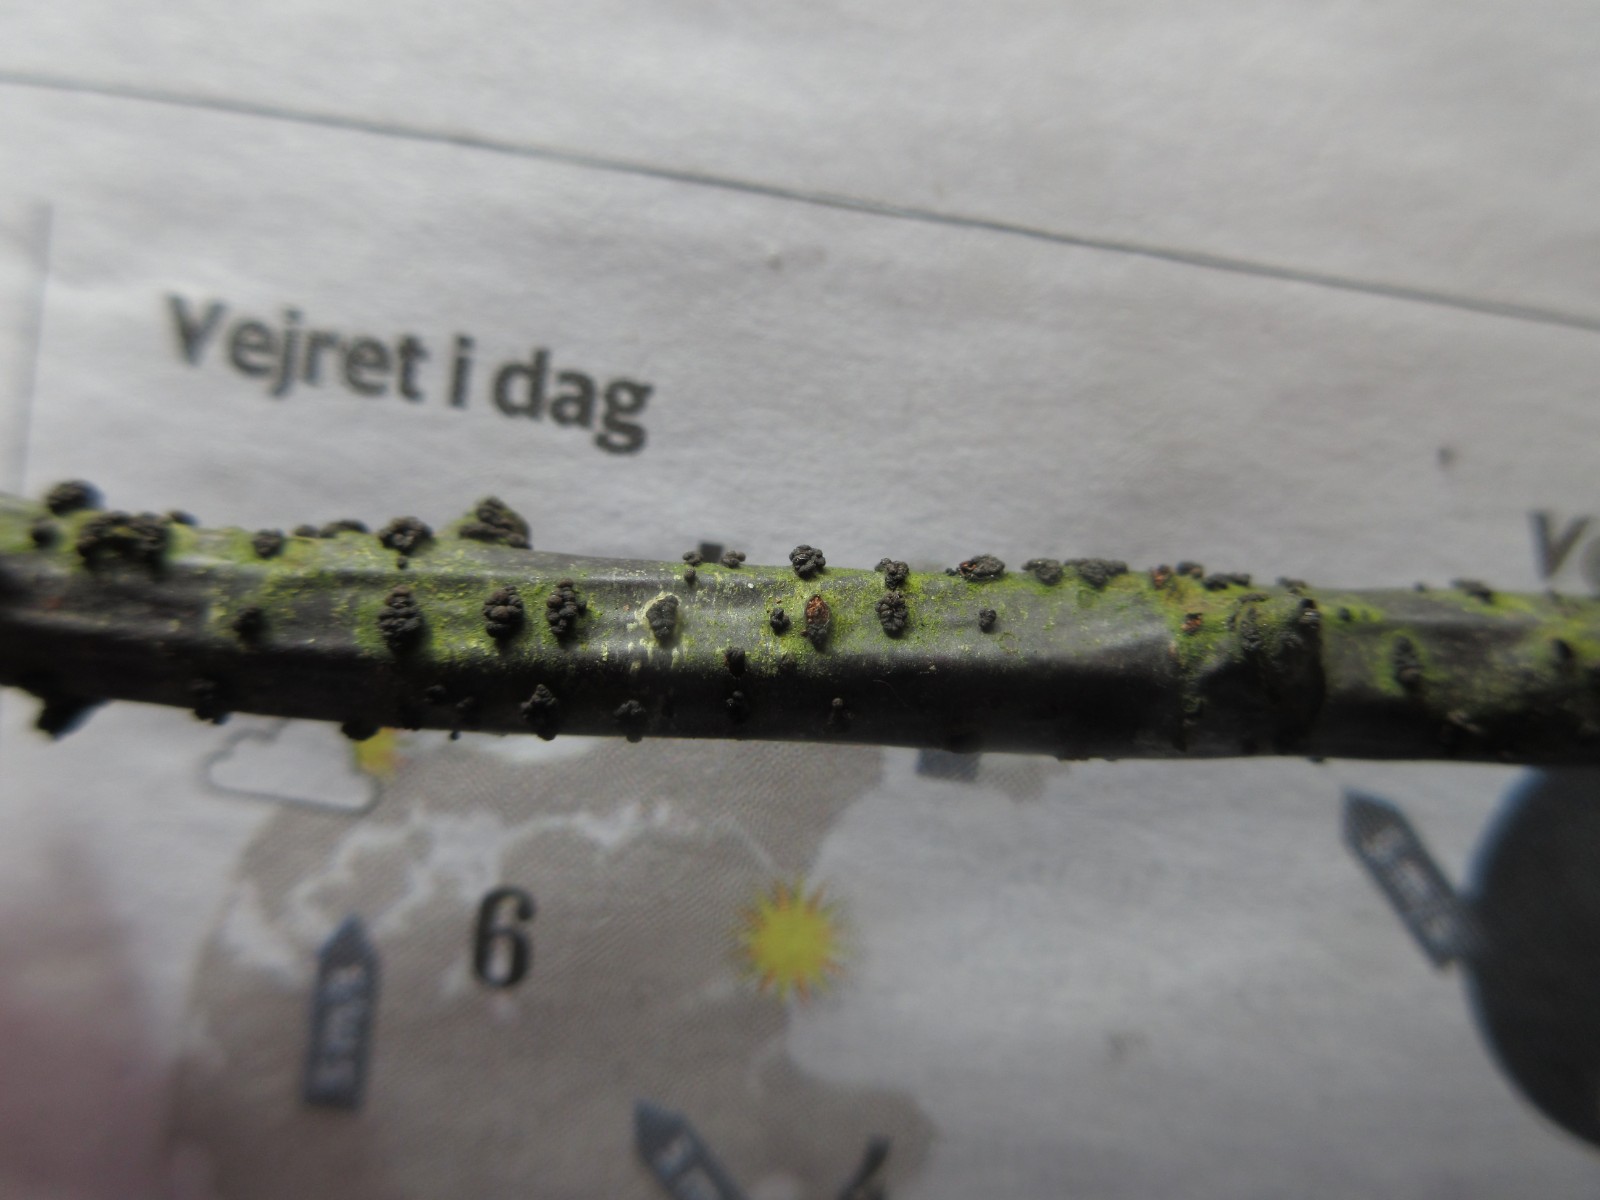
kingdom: Fungi
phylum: Ascomycota
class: Leotiomycetes
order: Helotiales
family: Godroniaceae
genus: Godronia
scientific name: Godronia ribis
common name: ribs-urneskive
